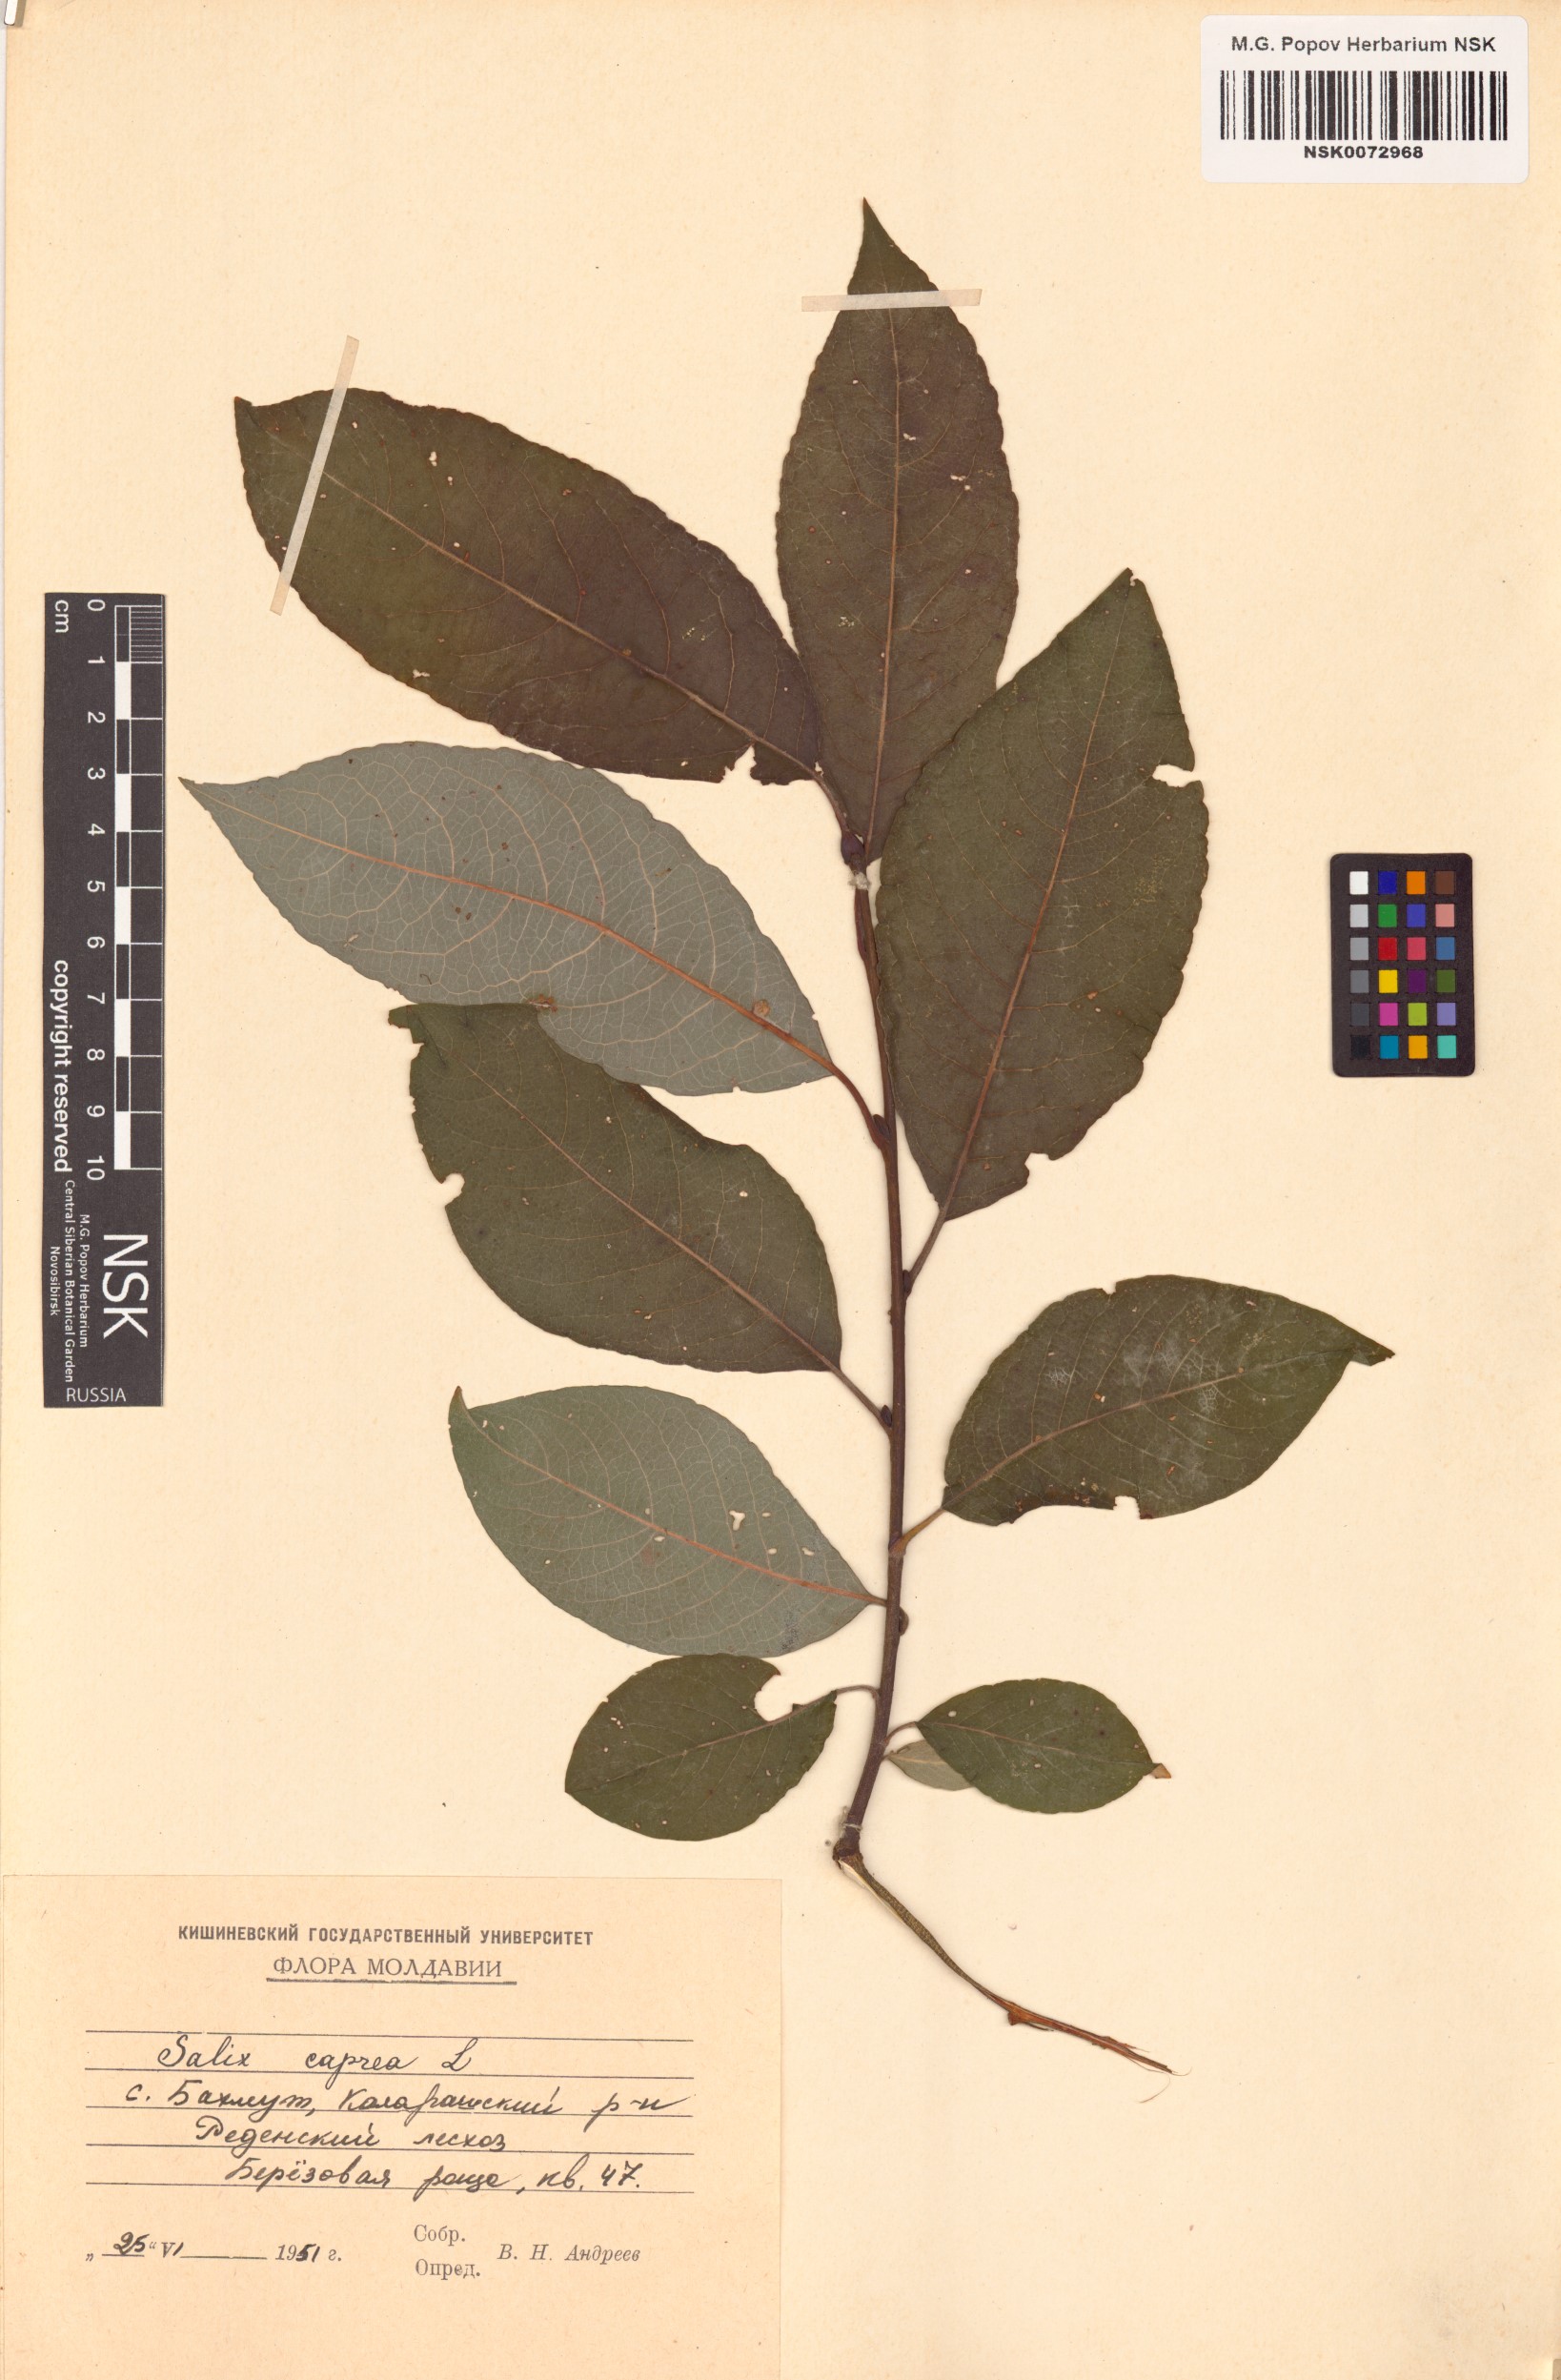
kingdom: Plantae
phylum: Tracheophyta
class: Magnoliopsida
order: Malpighiales
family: Salicaceae
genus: Salix
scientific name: Salix caprea
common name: Goat willow
